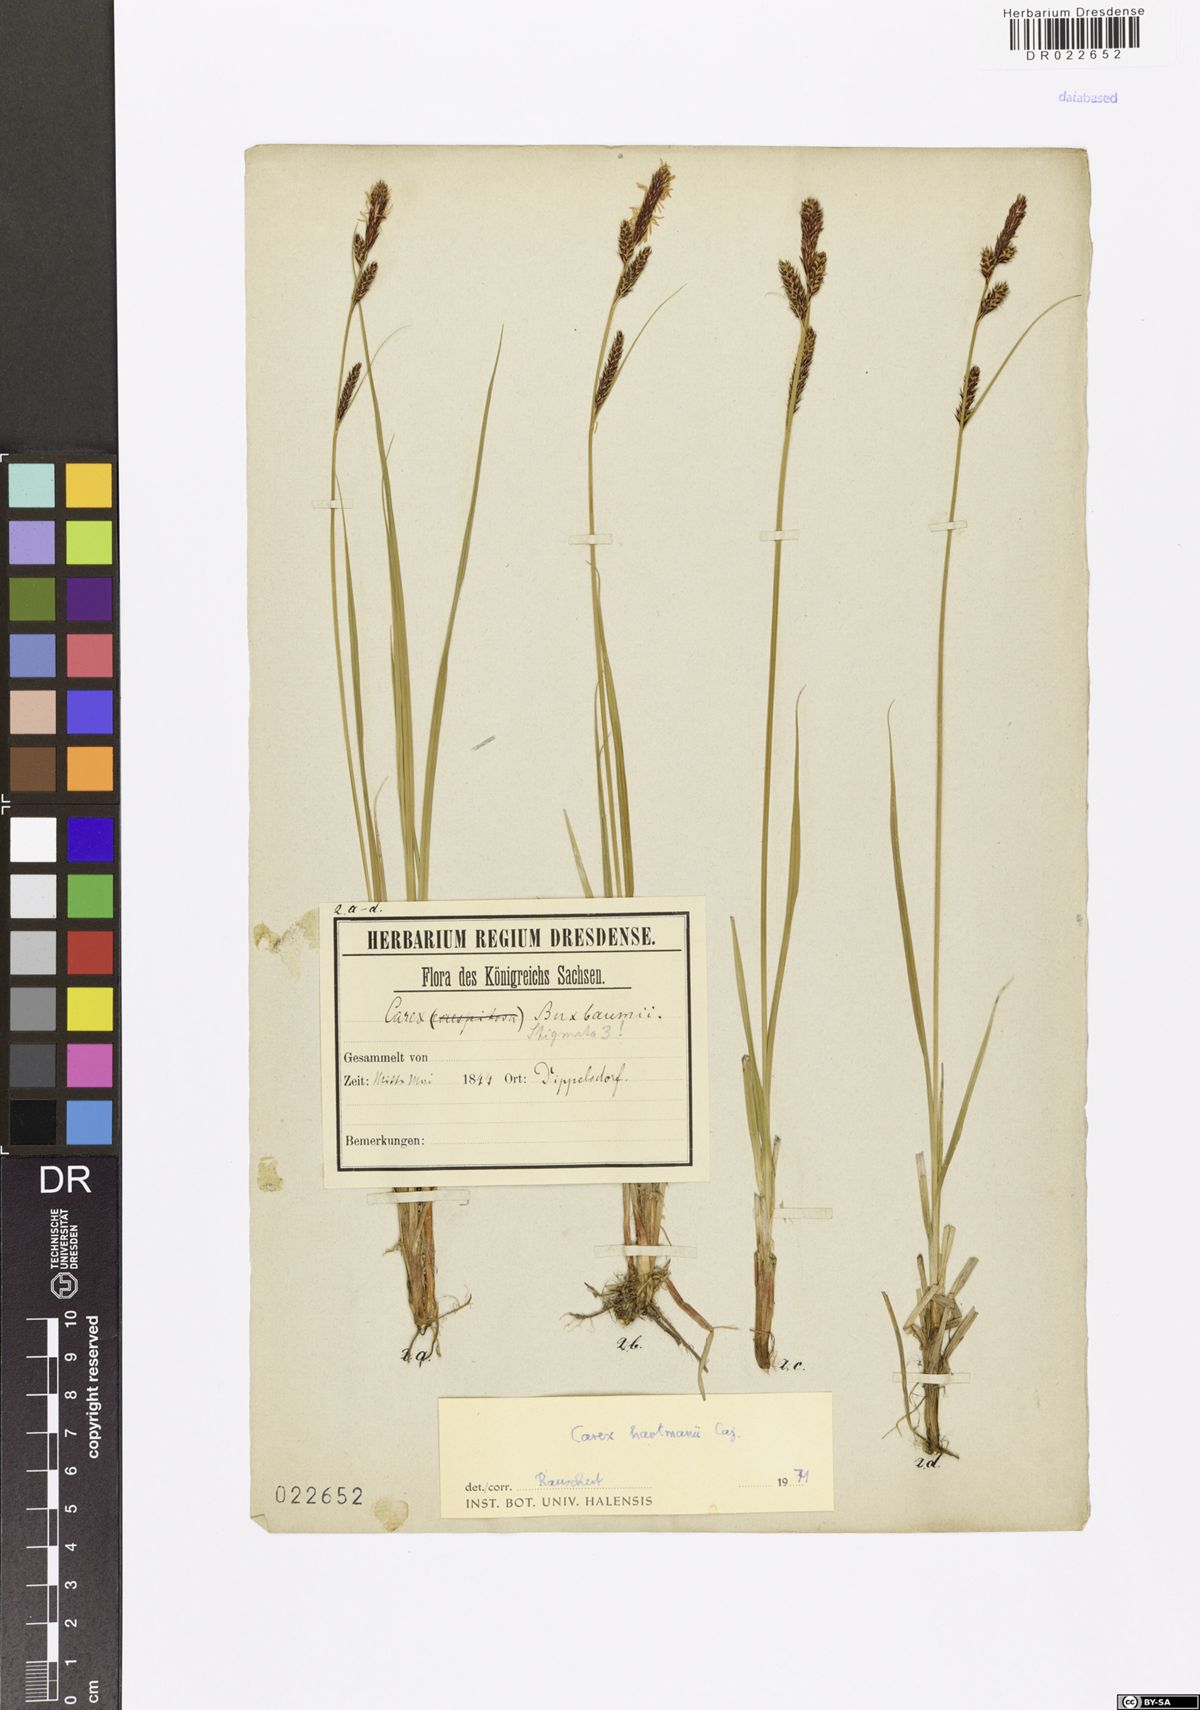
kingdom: Plantae
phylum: Tracheophyta
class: Liliopsida
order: Poales
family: Cyperaceae
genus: Carex
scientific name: Carex hartmaniorum
